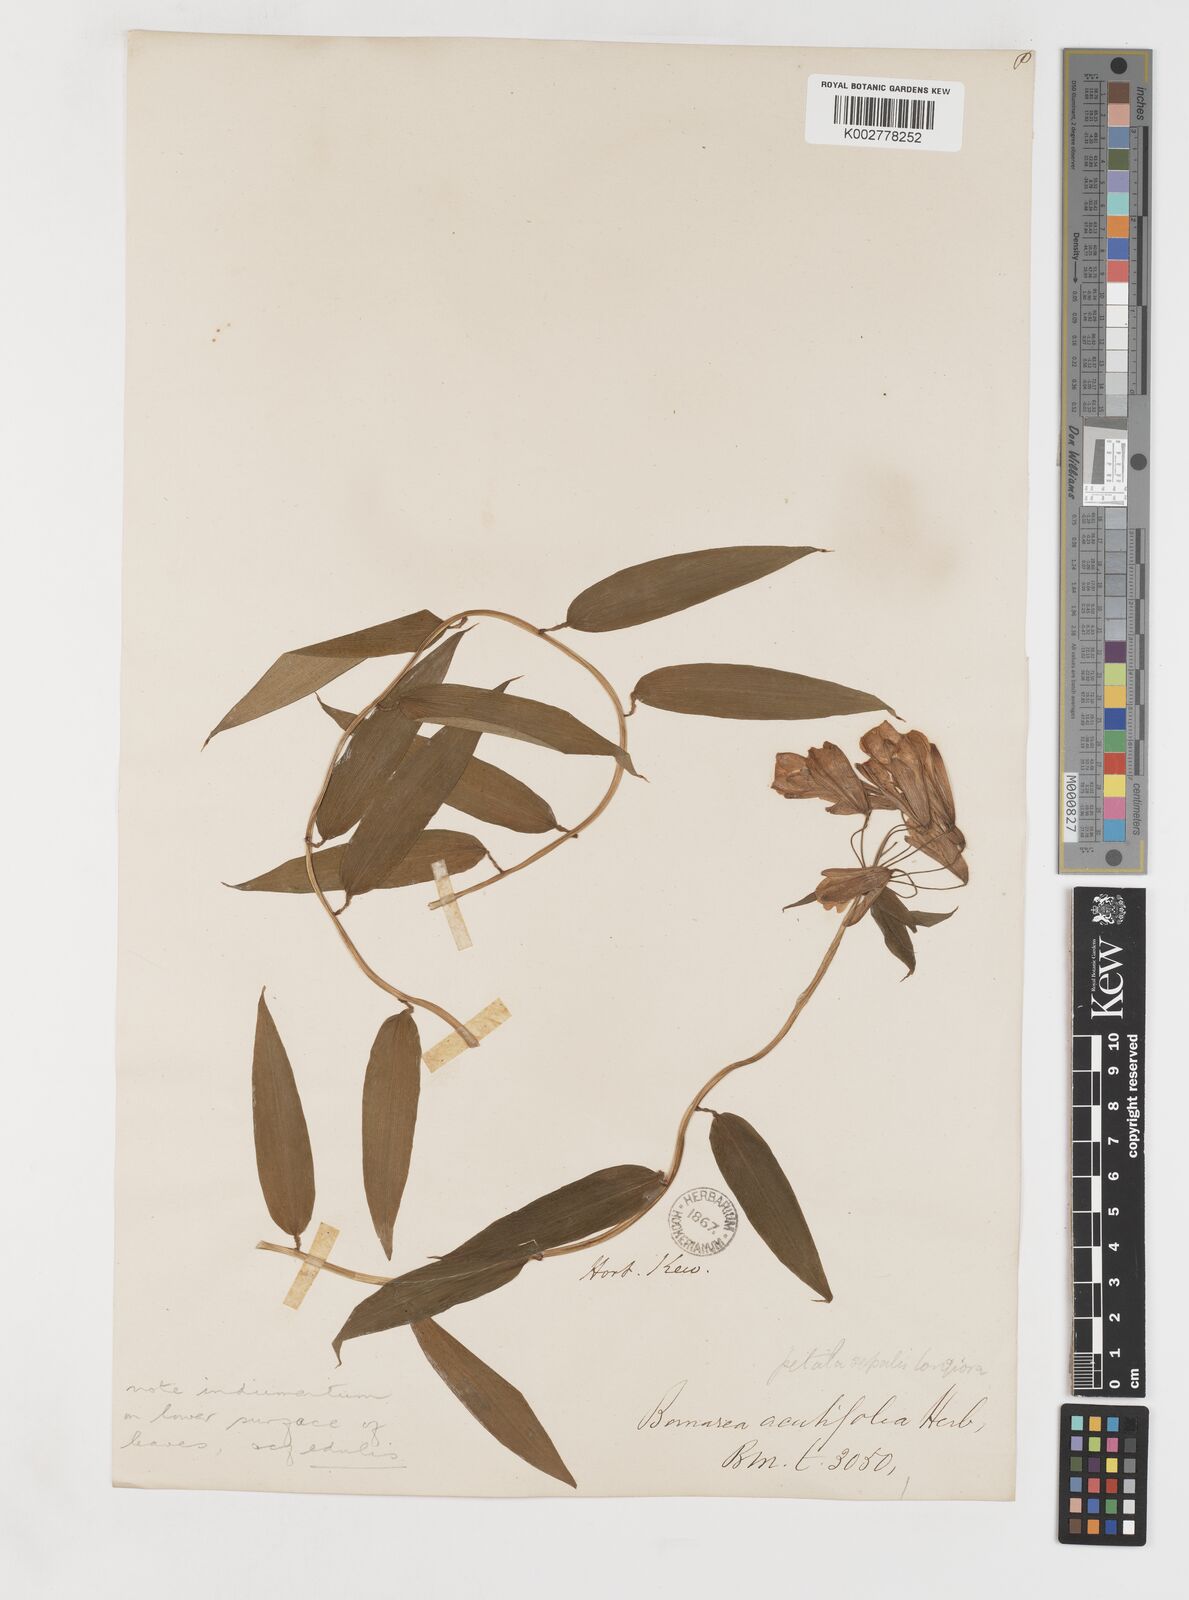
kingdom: Plantae
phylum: Tracheophyta
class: Liliopsida
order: Liliales
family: Alstroemeriaceae
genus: Bomarea
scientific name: Bomarea acutifolia
